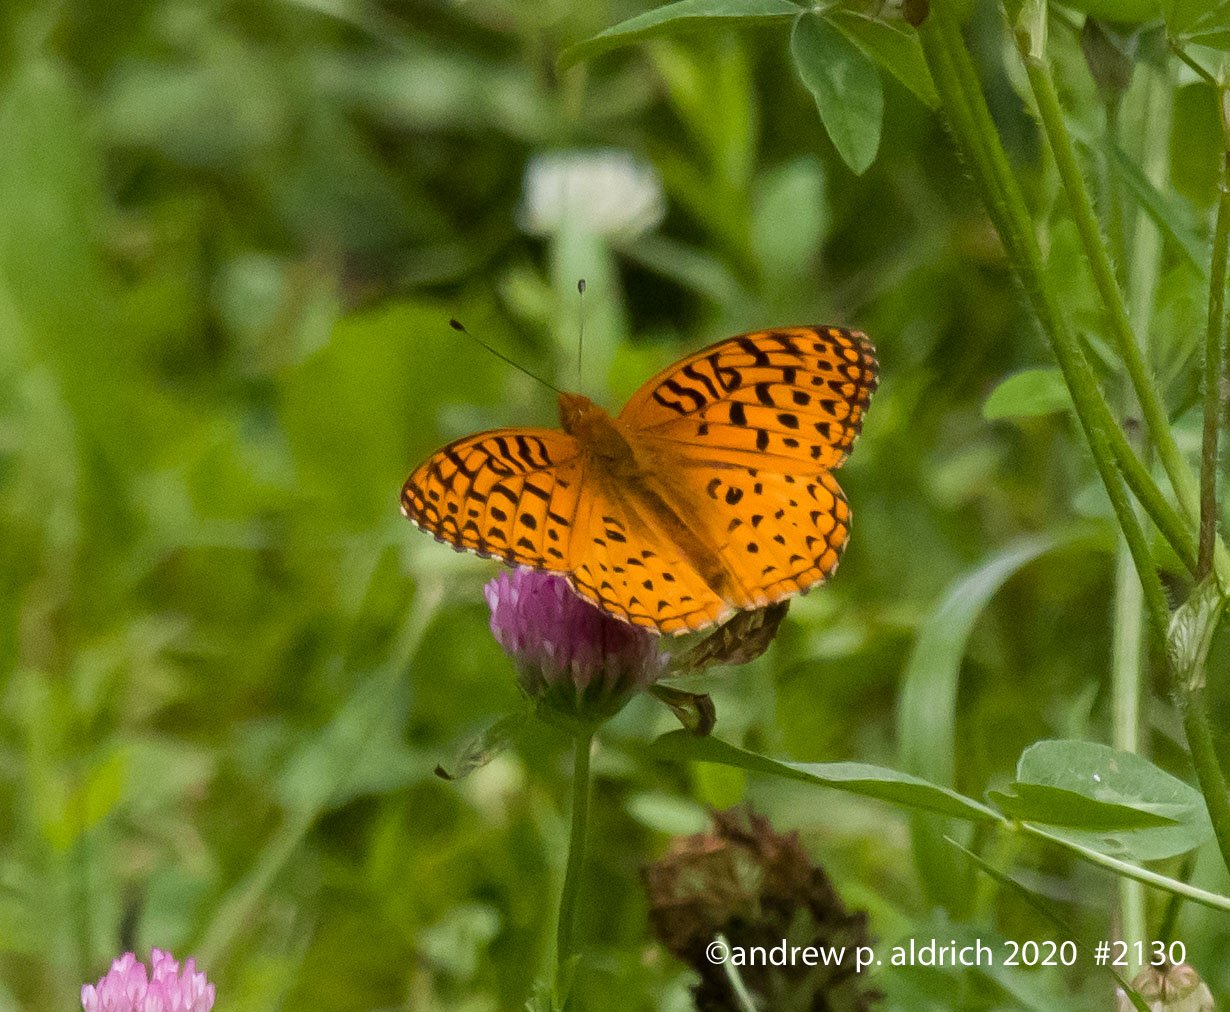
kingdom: Animalia
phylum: Arthropoda
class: Insecta
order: Lepidoptera
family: Nymphalidae
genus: Speyeria
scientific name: Speyeria atlantis
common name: Atlantis Fritillary
